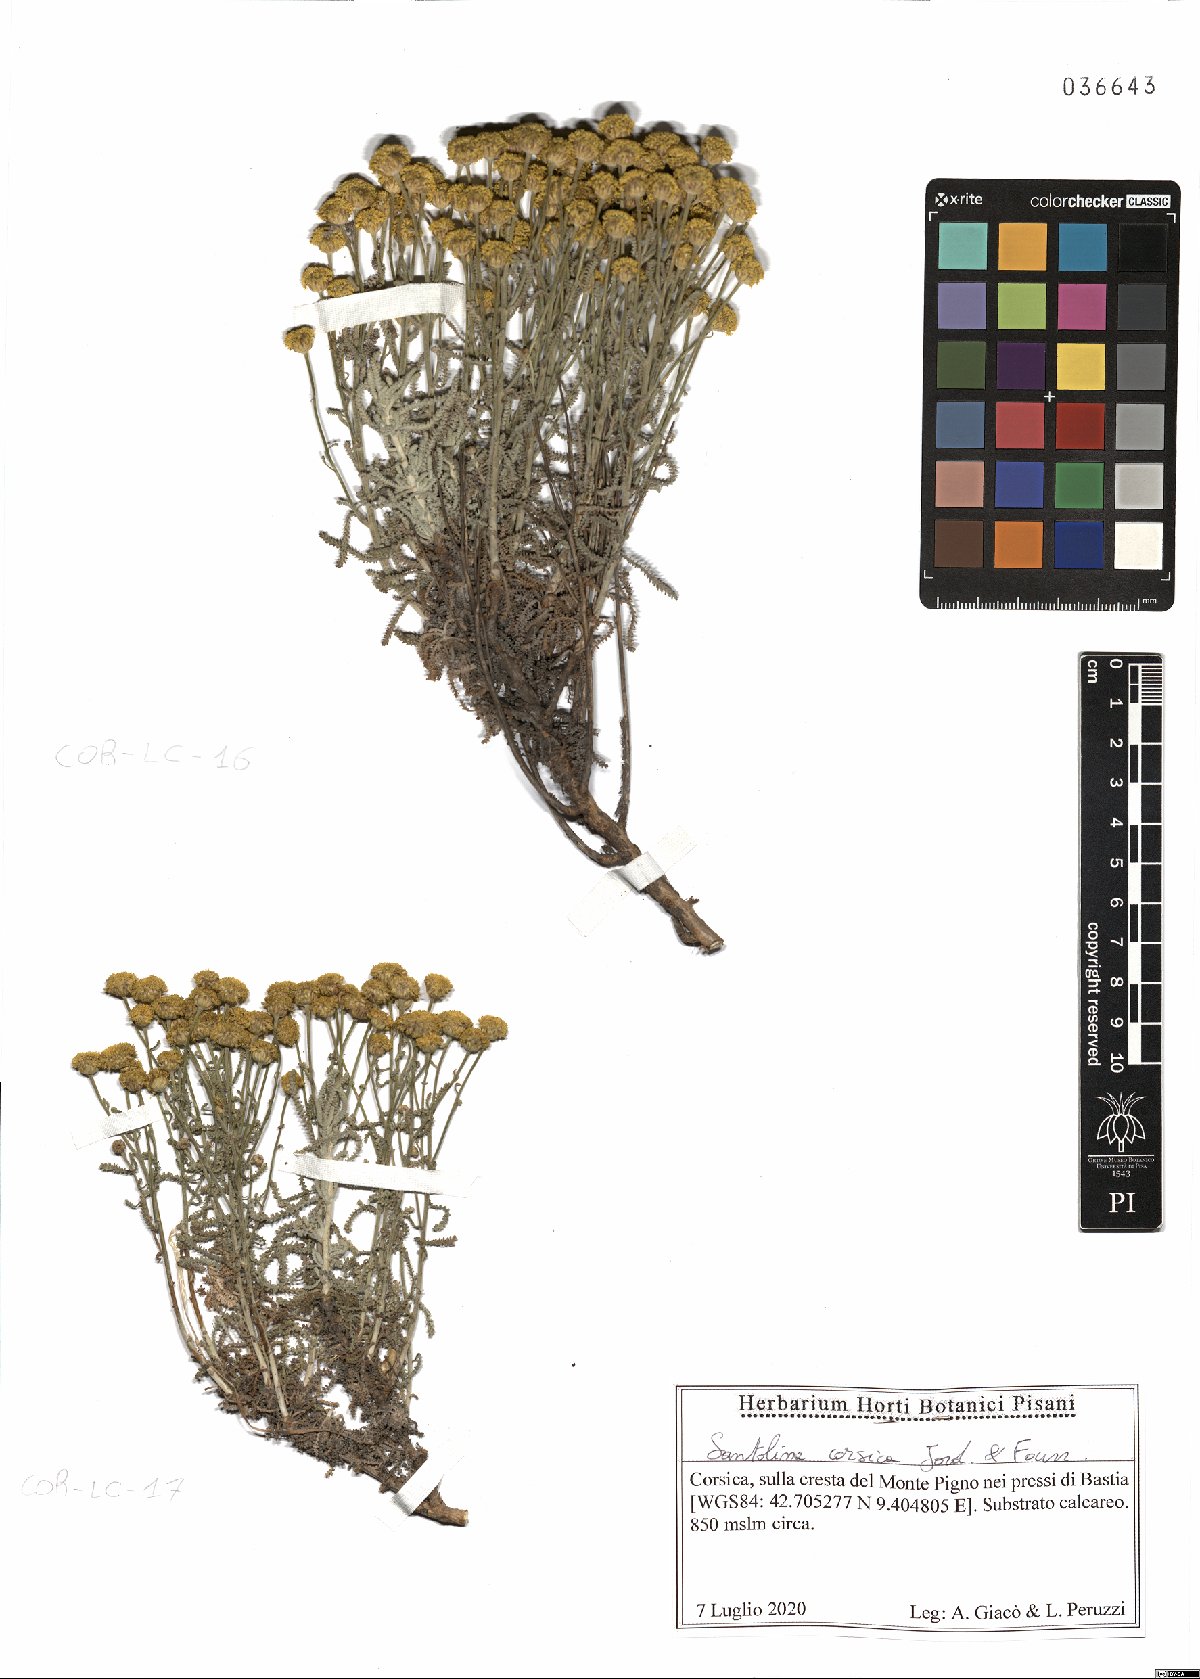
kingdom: Plantae
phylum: Tracheophyta
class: Magnoliopsida
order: Asterales
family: Asteraceae
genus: Santolina
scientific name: Santolina corsica
